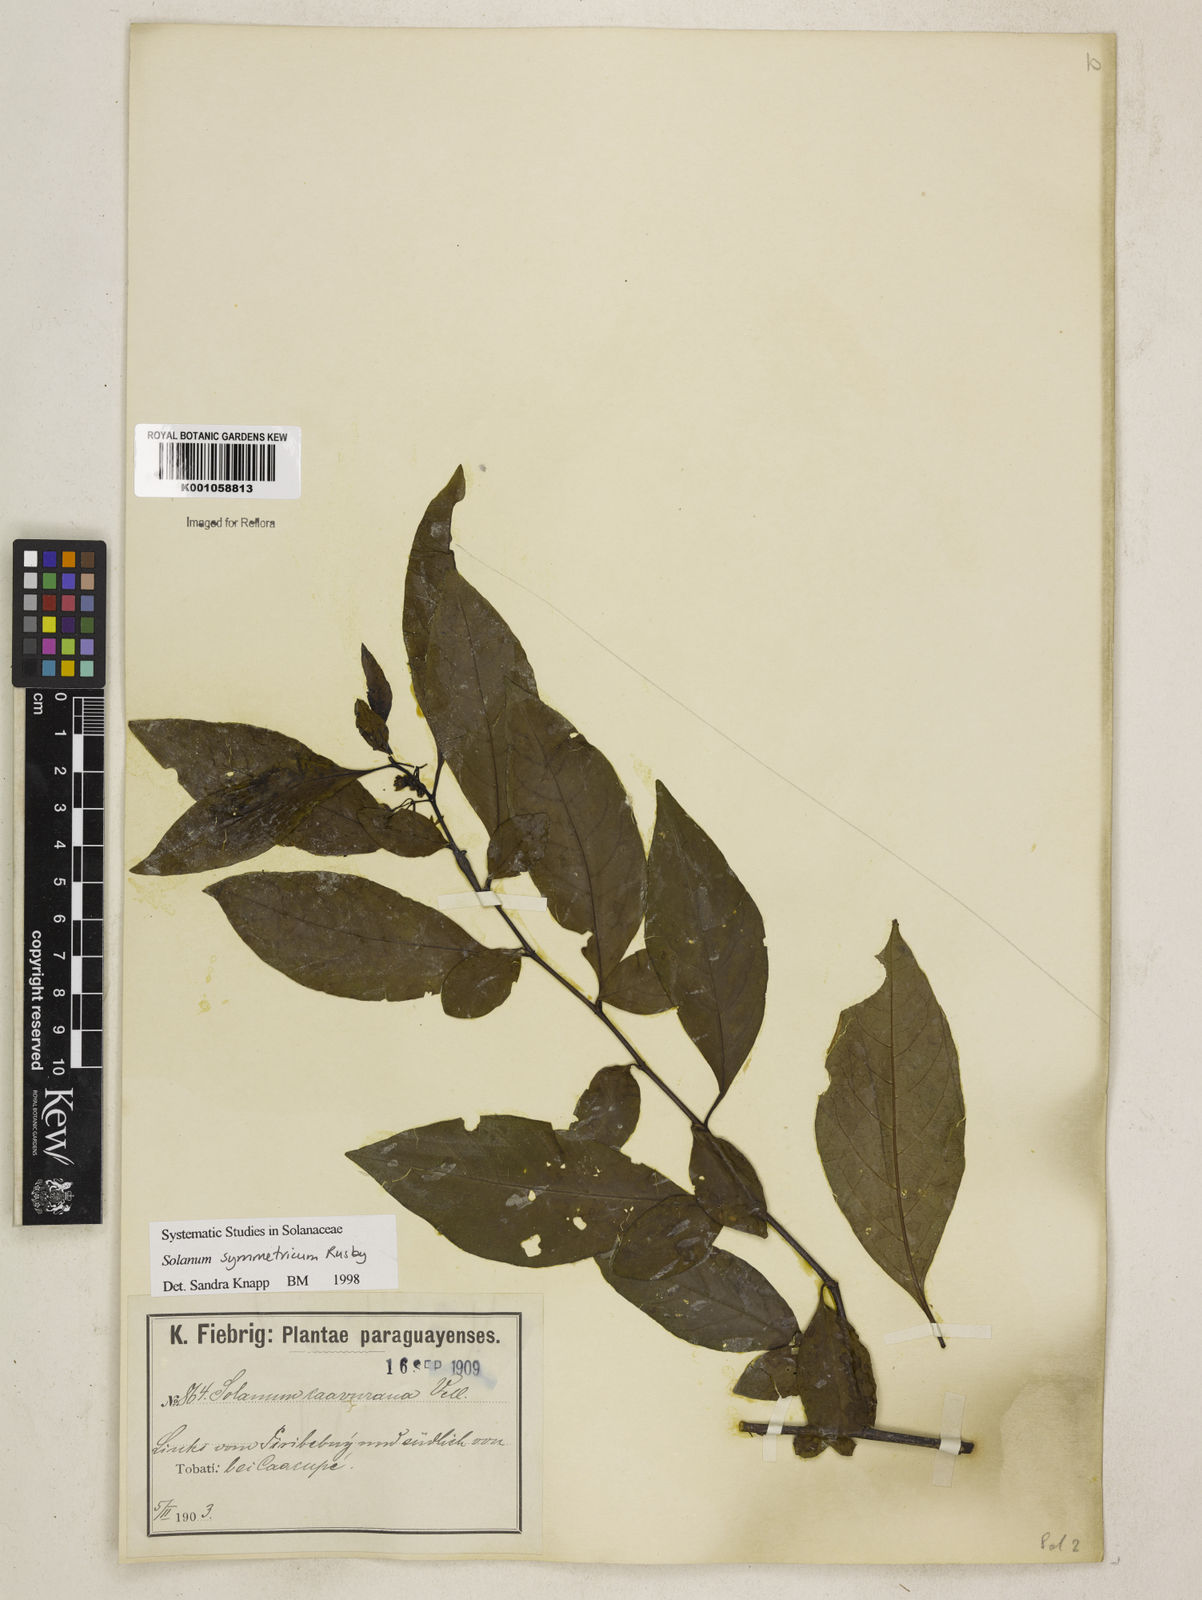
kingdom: Plantae
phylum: Tracheophyta
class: Magnoliopsida
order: Solanales
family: Solanaceae
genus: Solanum
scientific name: Solanum symmetricum
